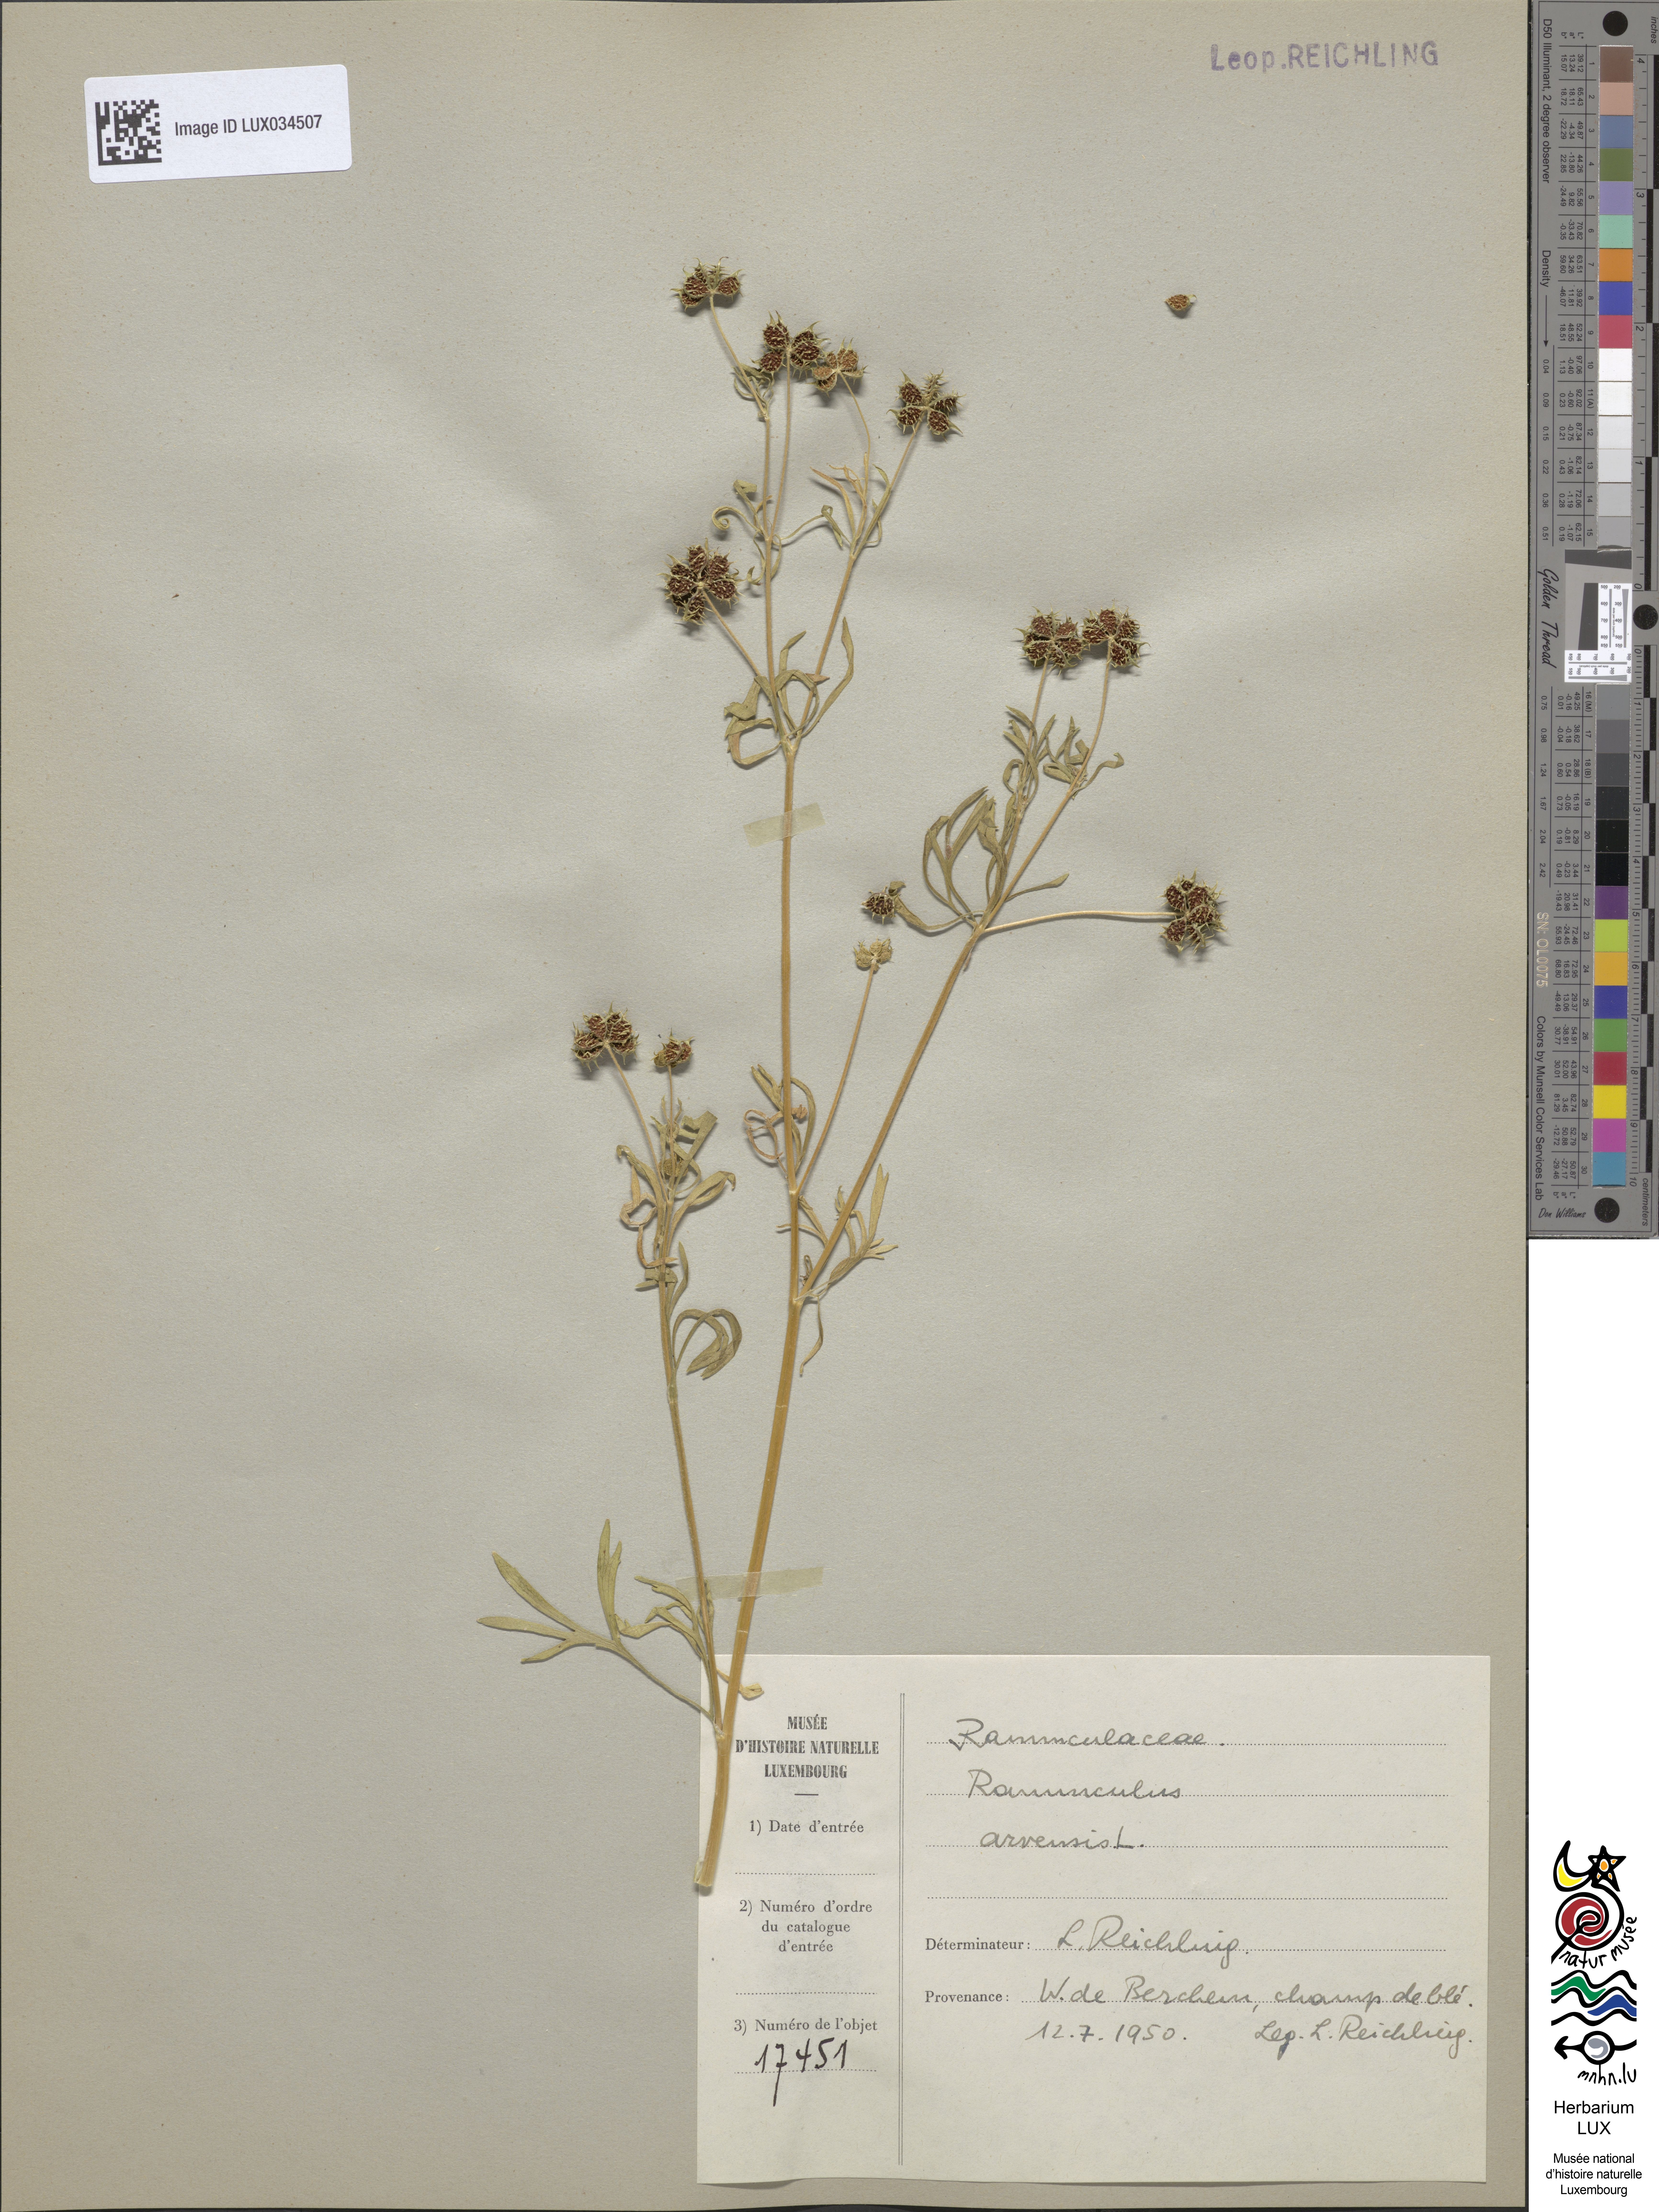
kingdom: Plantae
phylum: Tracheophyta
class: Magnoliopsida
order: Ranunculales
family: Ranunculaceae
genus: Ranunculus
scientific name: Ranunculus arvensis
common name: Corn buttercup
